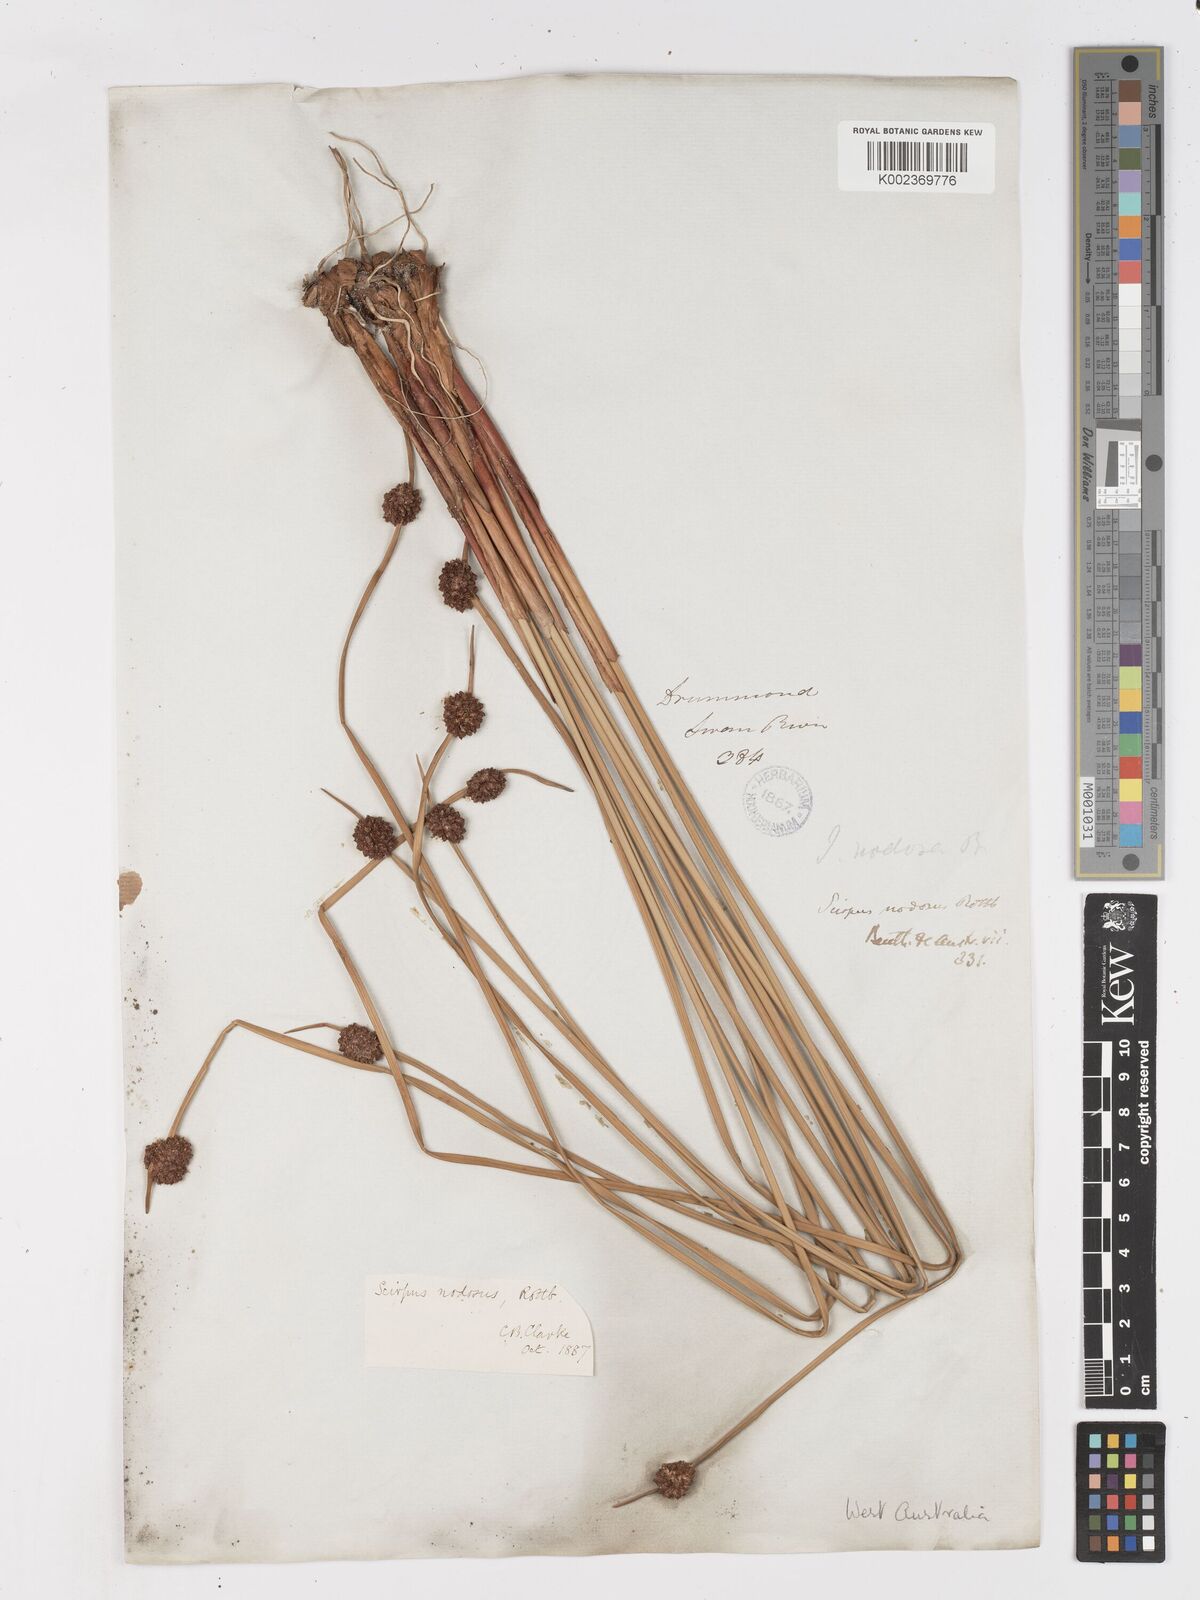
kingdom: Plantae
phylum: Tracheophyta
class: Liliopsida
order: Poales
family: Cyperaceae
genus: Ficinia
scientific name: Ficinia nodosa
